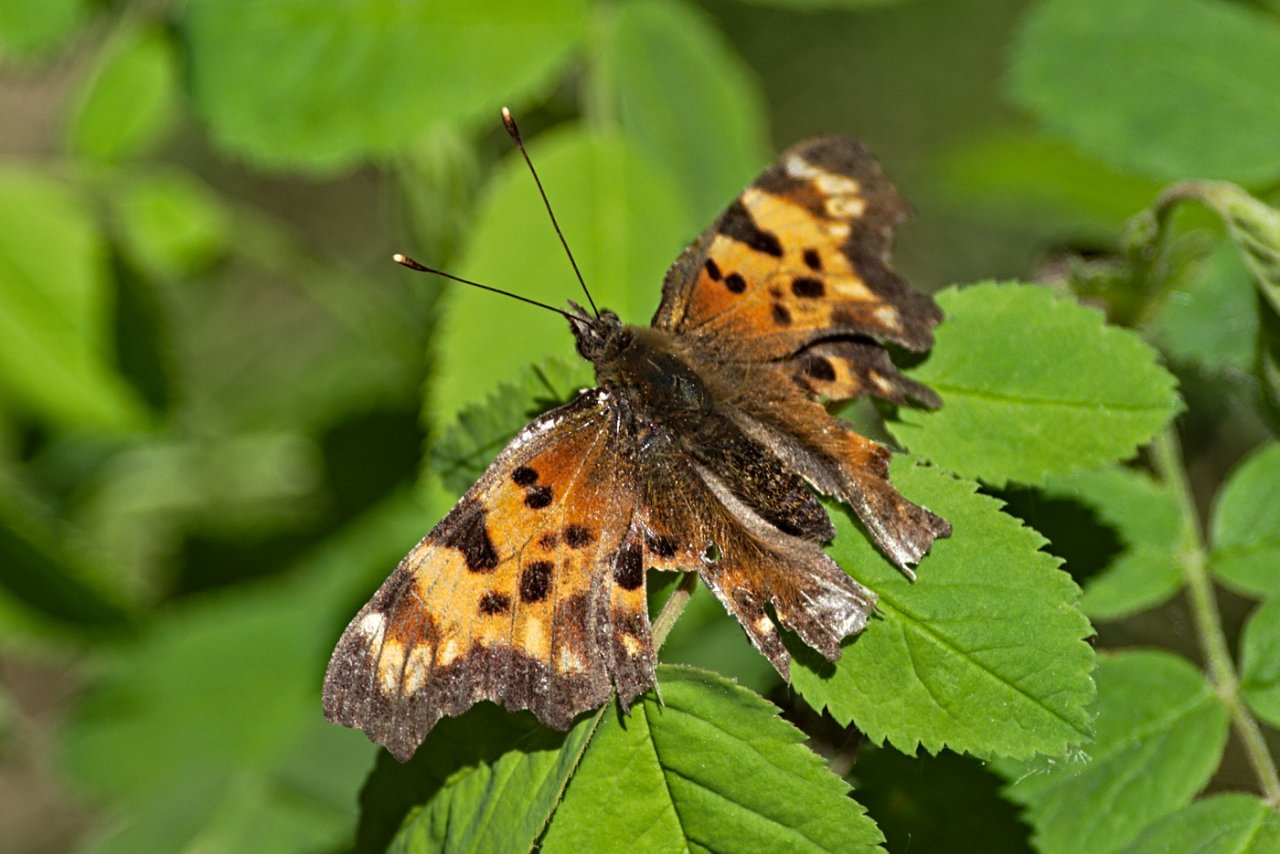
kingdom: Animalia
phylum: Arthropoda
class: Insecta
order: Lepidoptera
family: Nymphalidae
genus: Polygonia
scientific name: Polygonia faunus
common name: Green Comma
